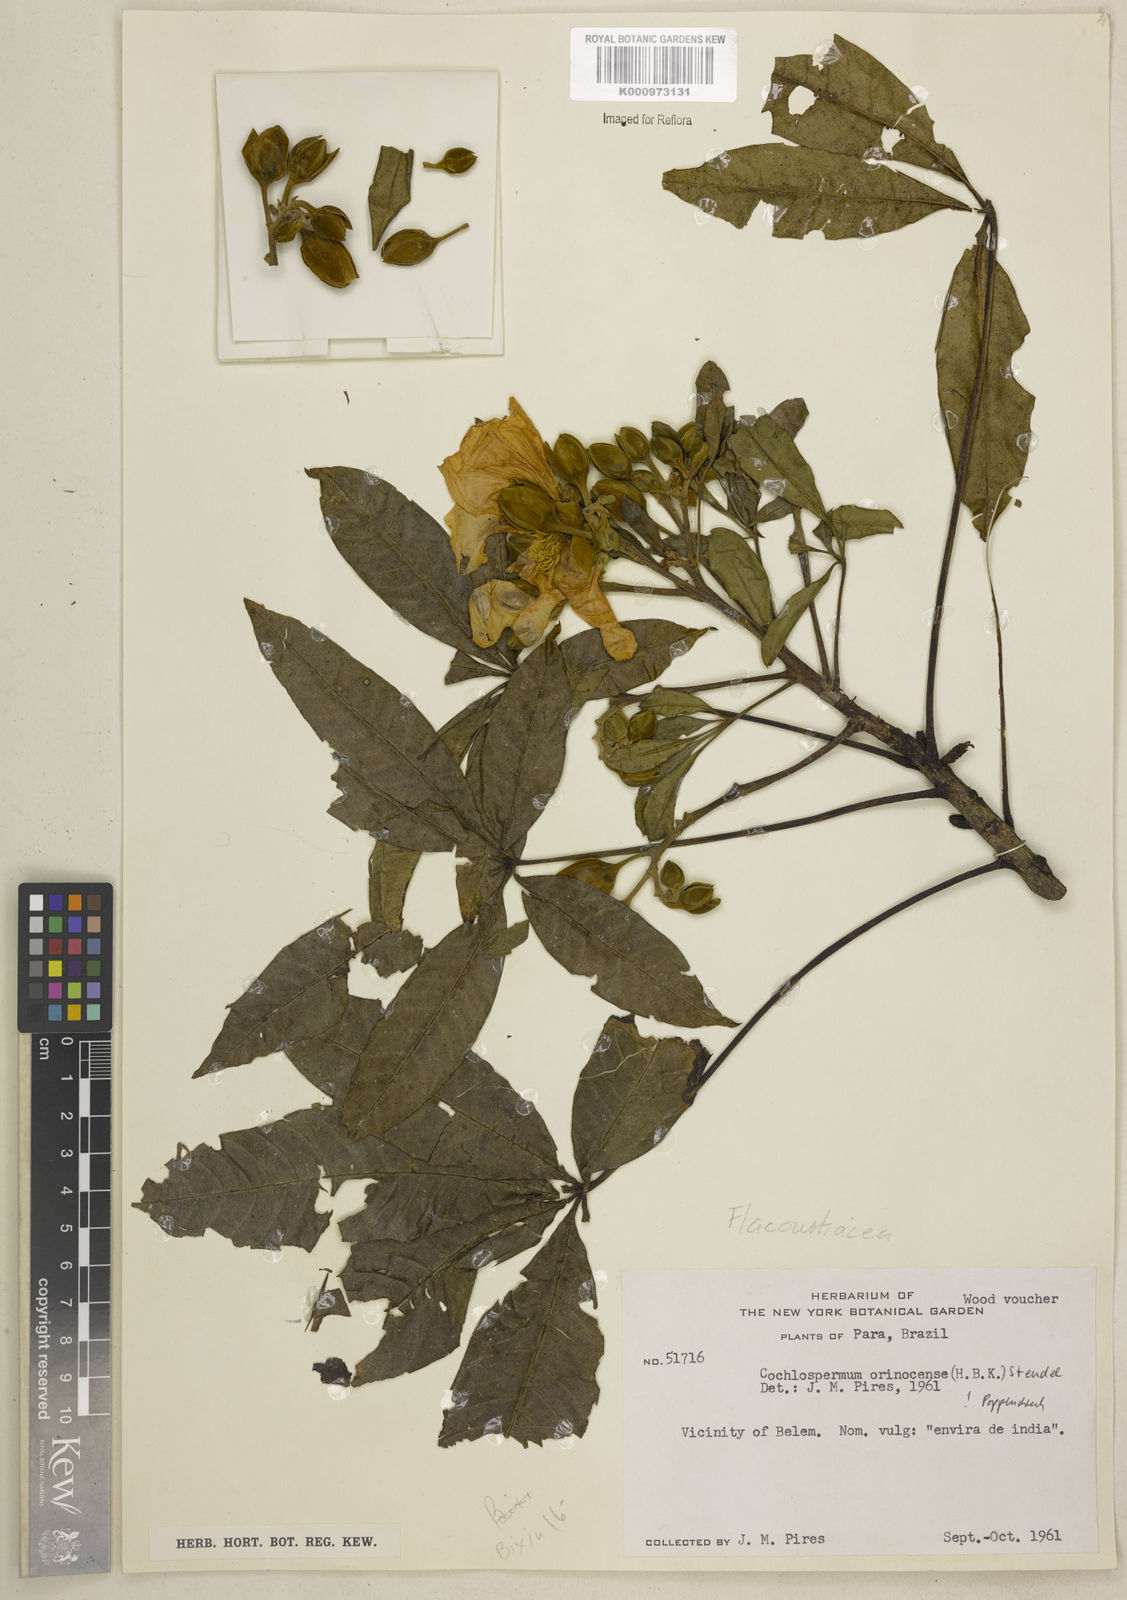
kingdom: Plantae
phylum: Tracheophyta
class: Magnoliopsida
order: Malvales
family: Cochlospermaceae
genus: Cochlospermum
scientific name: Cochlospermum orinocense
